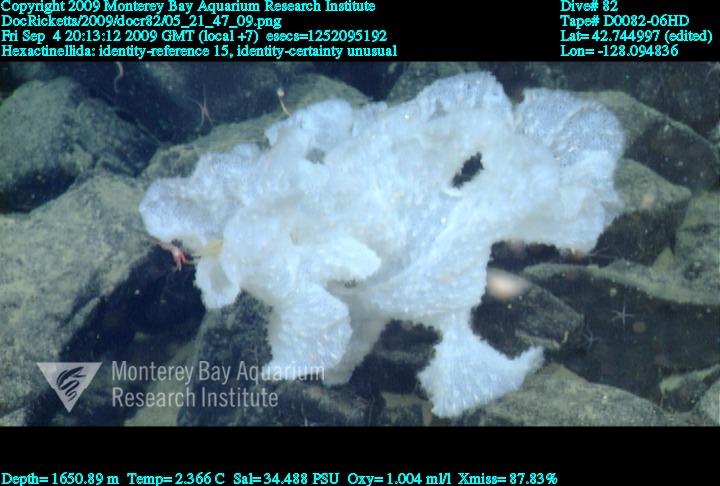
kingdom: Animalia
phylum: Porifera
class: Hexactinellida
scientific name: Hexactinellida
